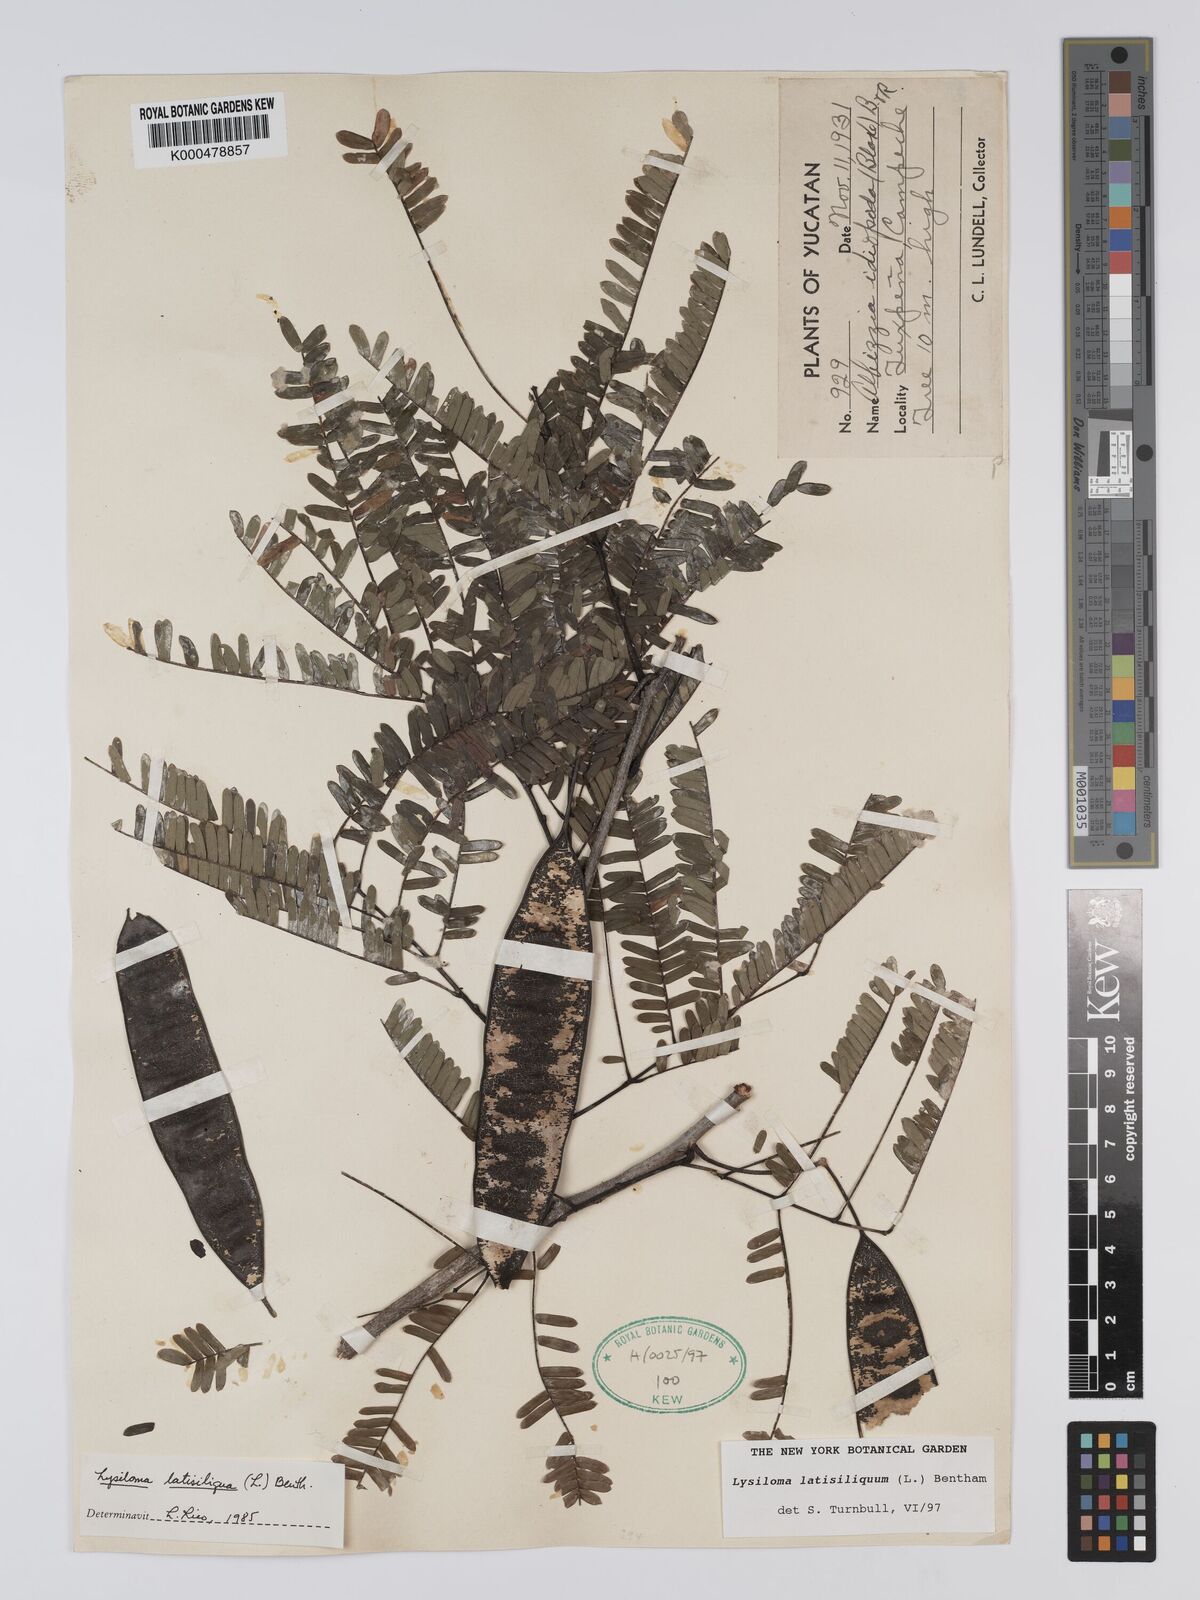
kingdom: Plantae
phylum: Tracheophyta
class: Magnoliopsida
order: Fabales
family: Fabaceae
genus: Lysiloma
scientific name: Lysiloma latisiliquum
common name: Wild tamarind
